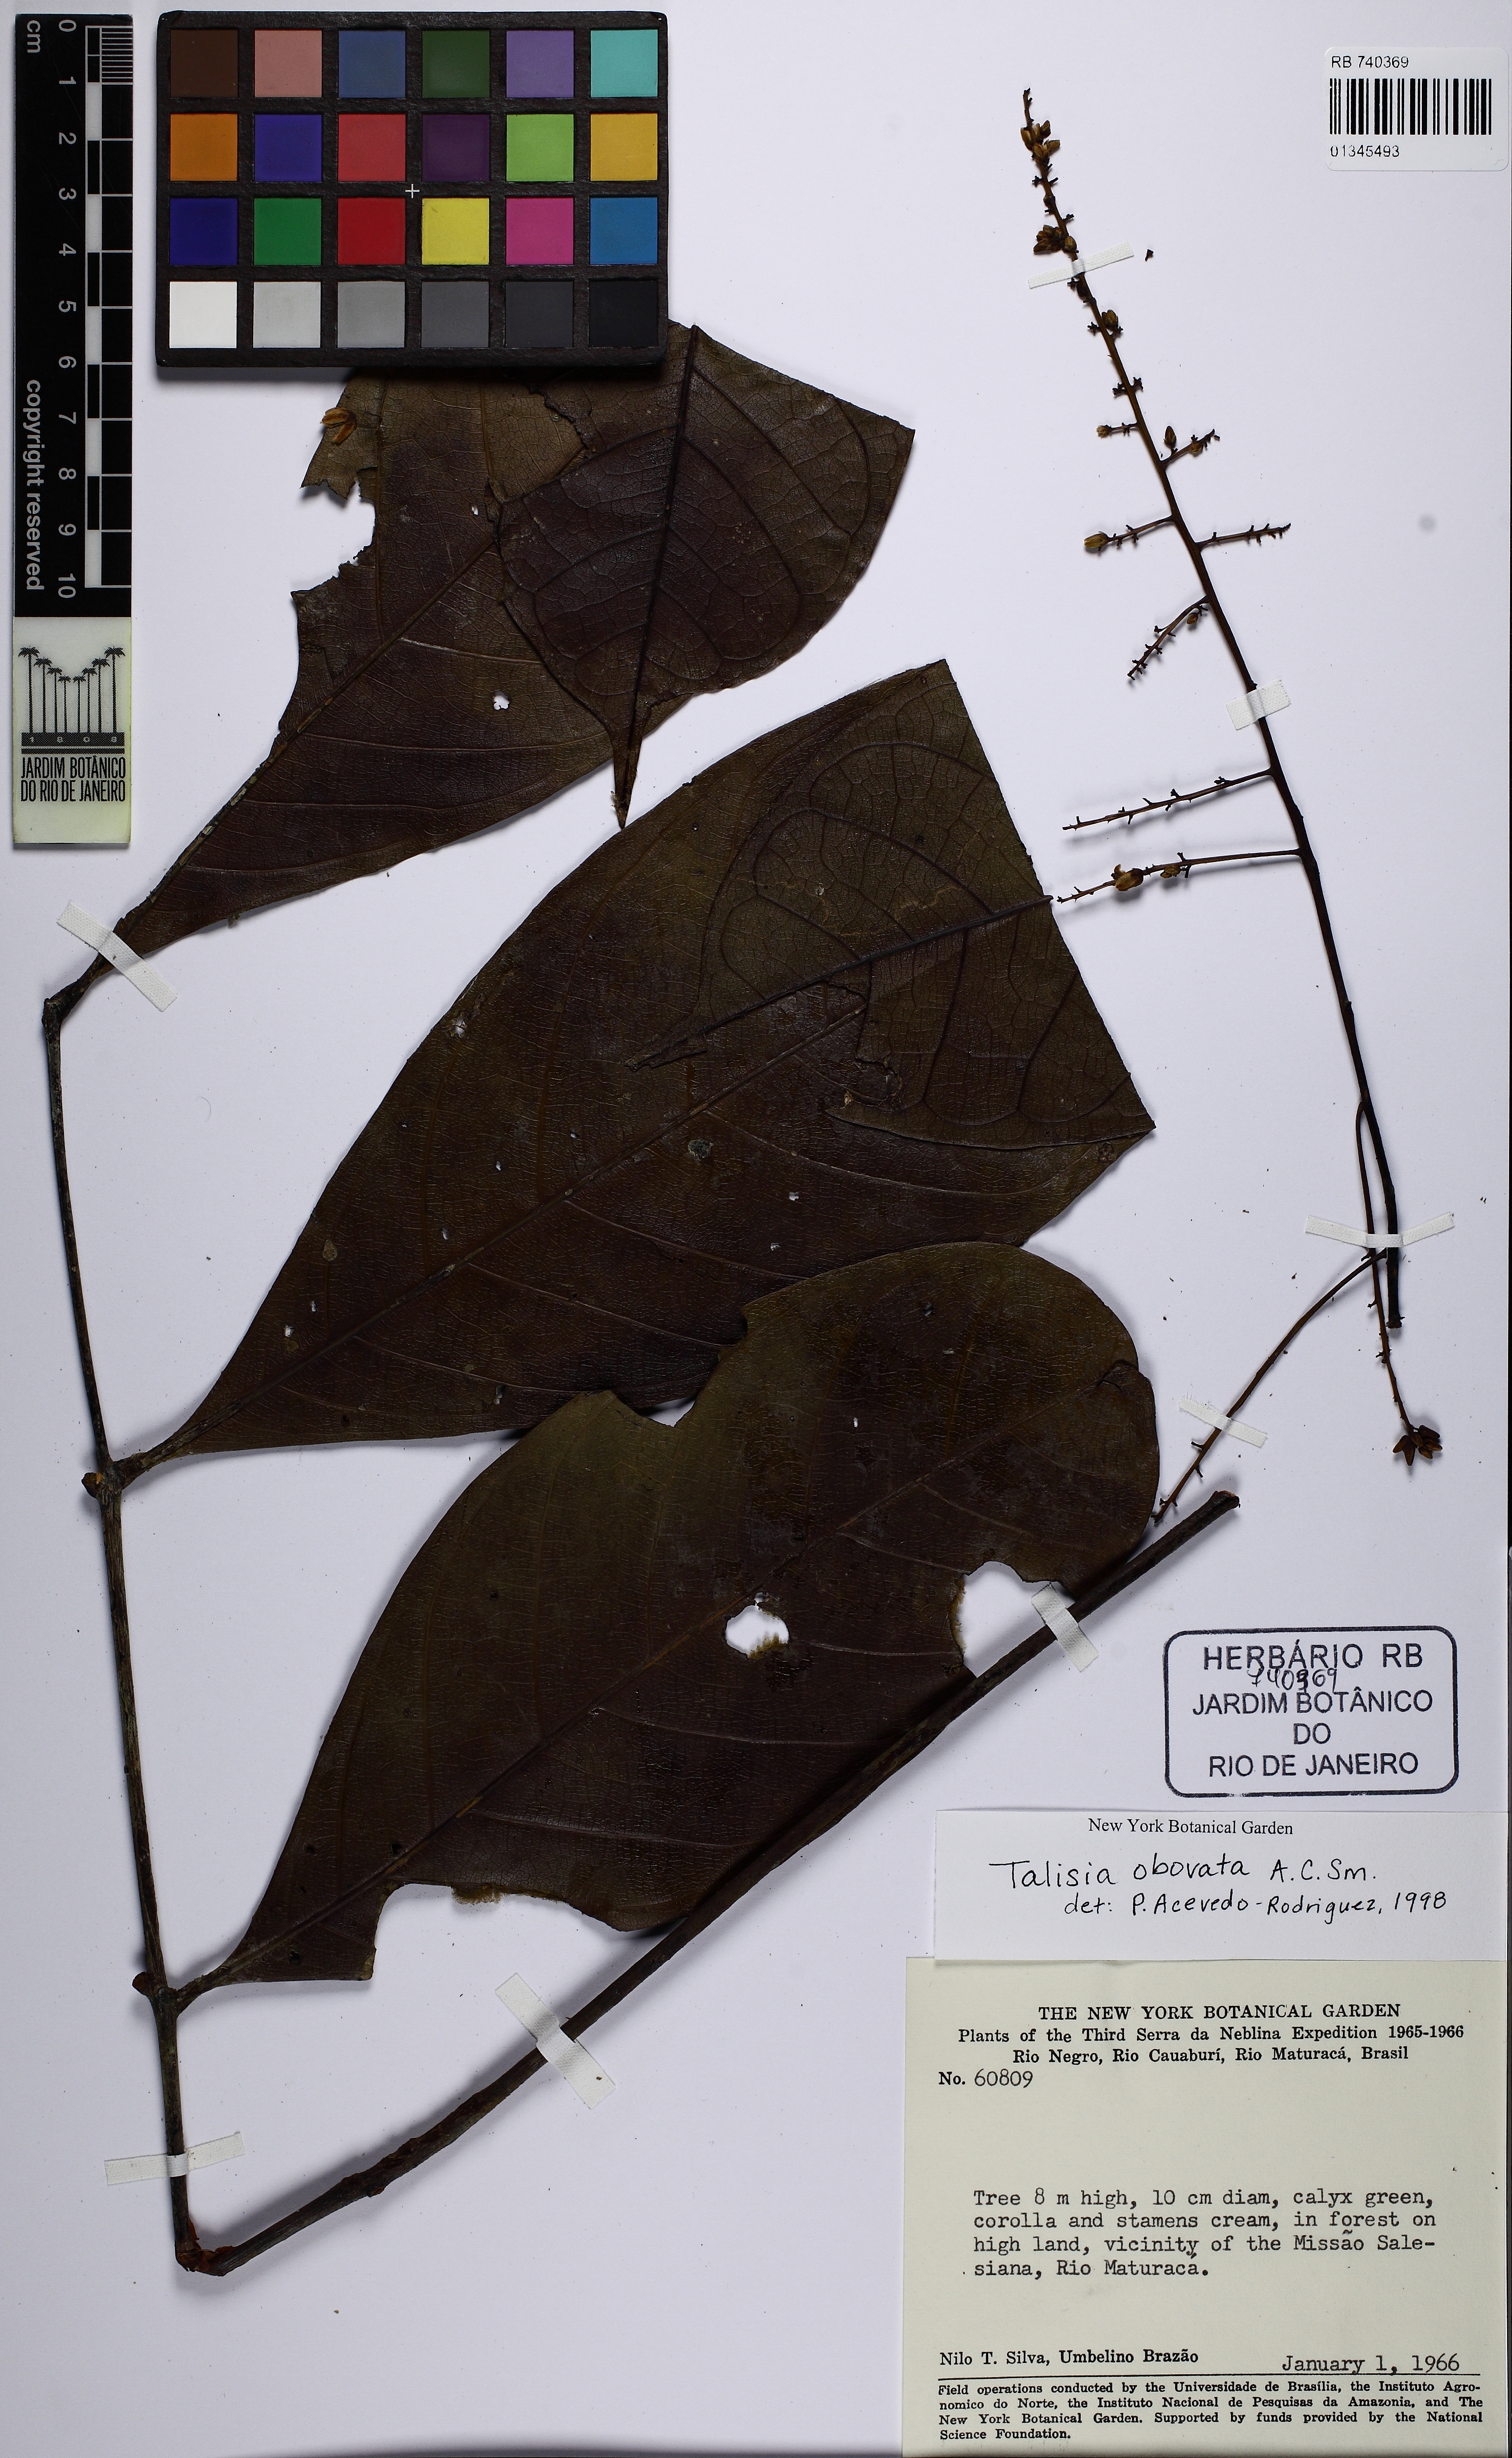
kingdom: Plantae
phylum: Tracheophyta
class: Magnoliopsida
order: Sapindales
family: Sapindaceae
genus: Talisia
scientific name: Talisia obovata
